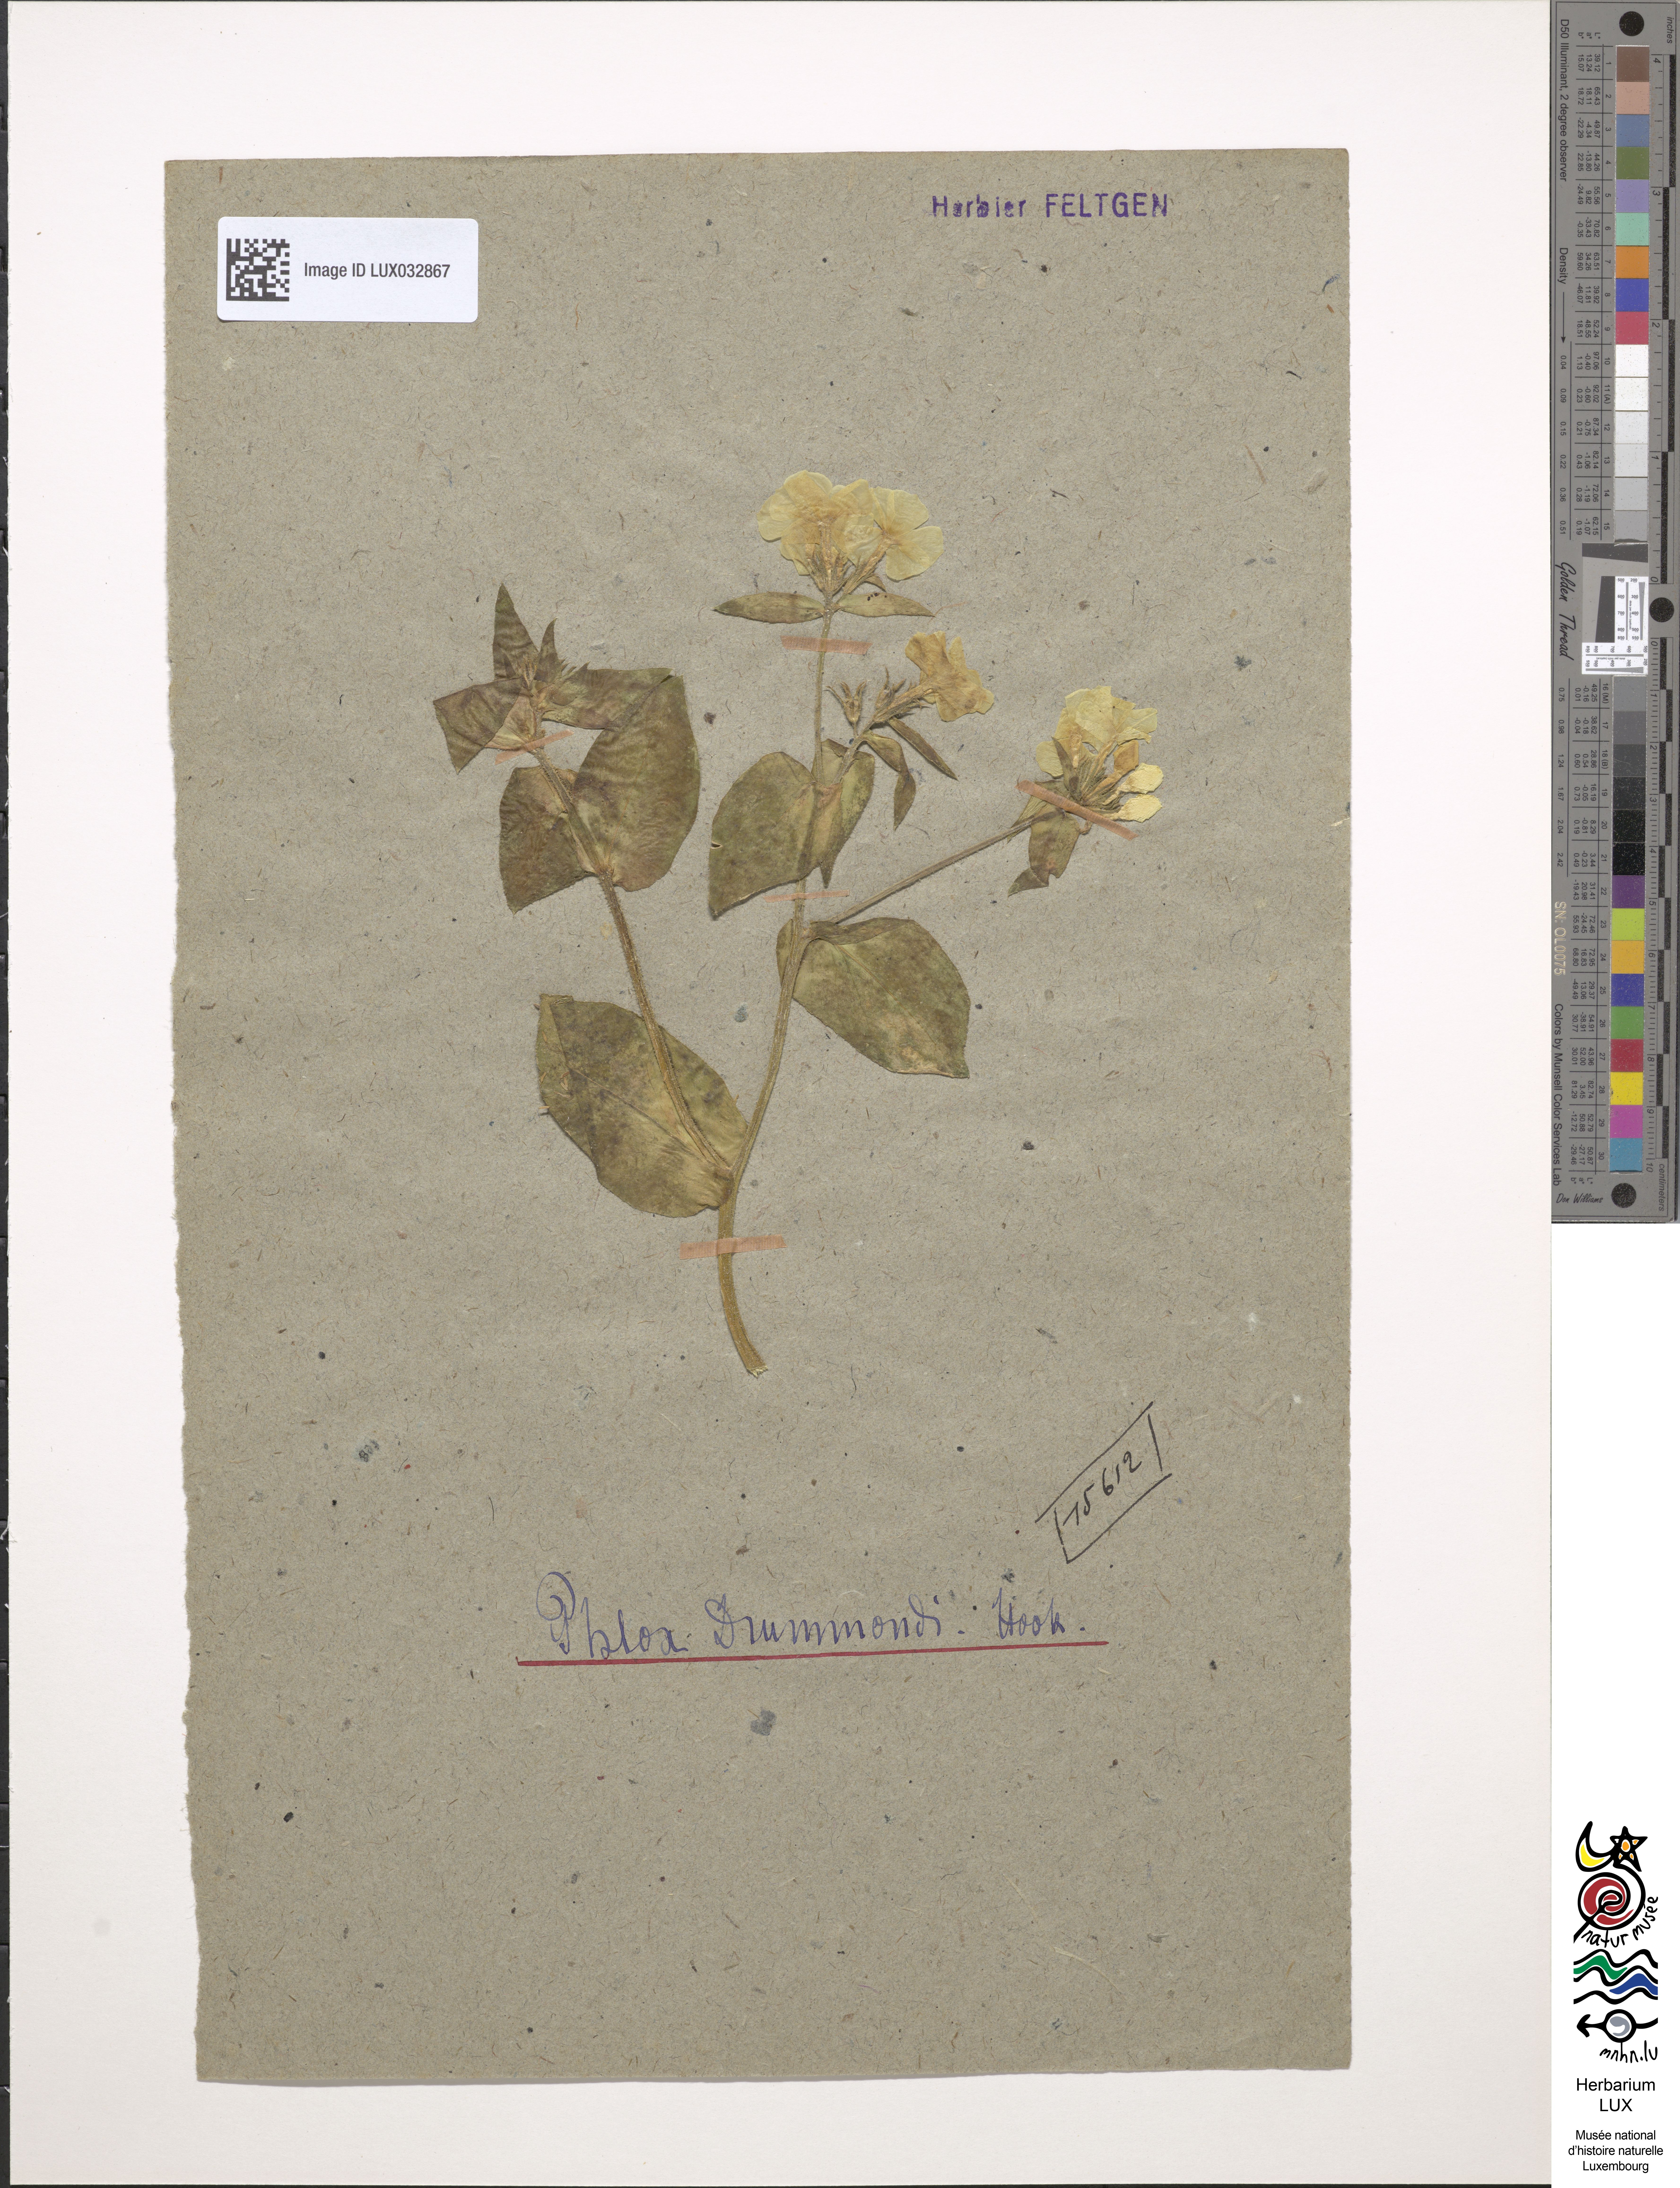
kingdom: Plantae
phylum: Tracheophyta
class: Magnoliopsida
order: Ericales
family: Polemoniaceae
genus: Phlox
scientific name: Phlox drummondii
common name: Drummond's phlox
